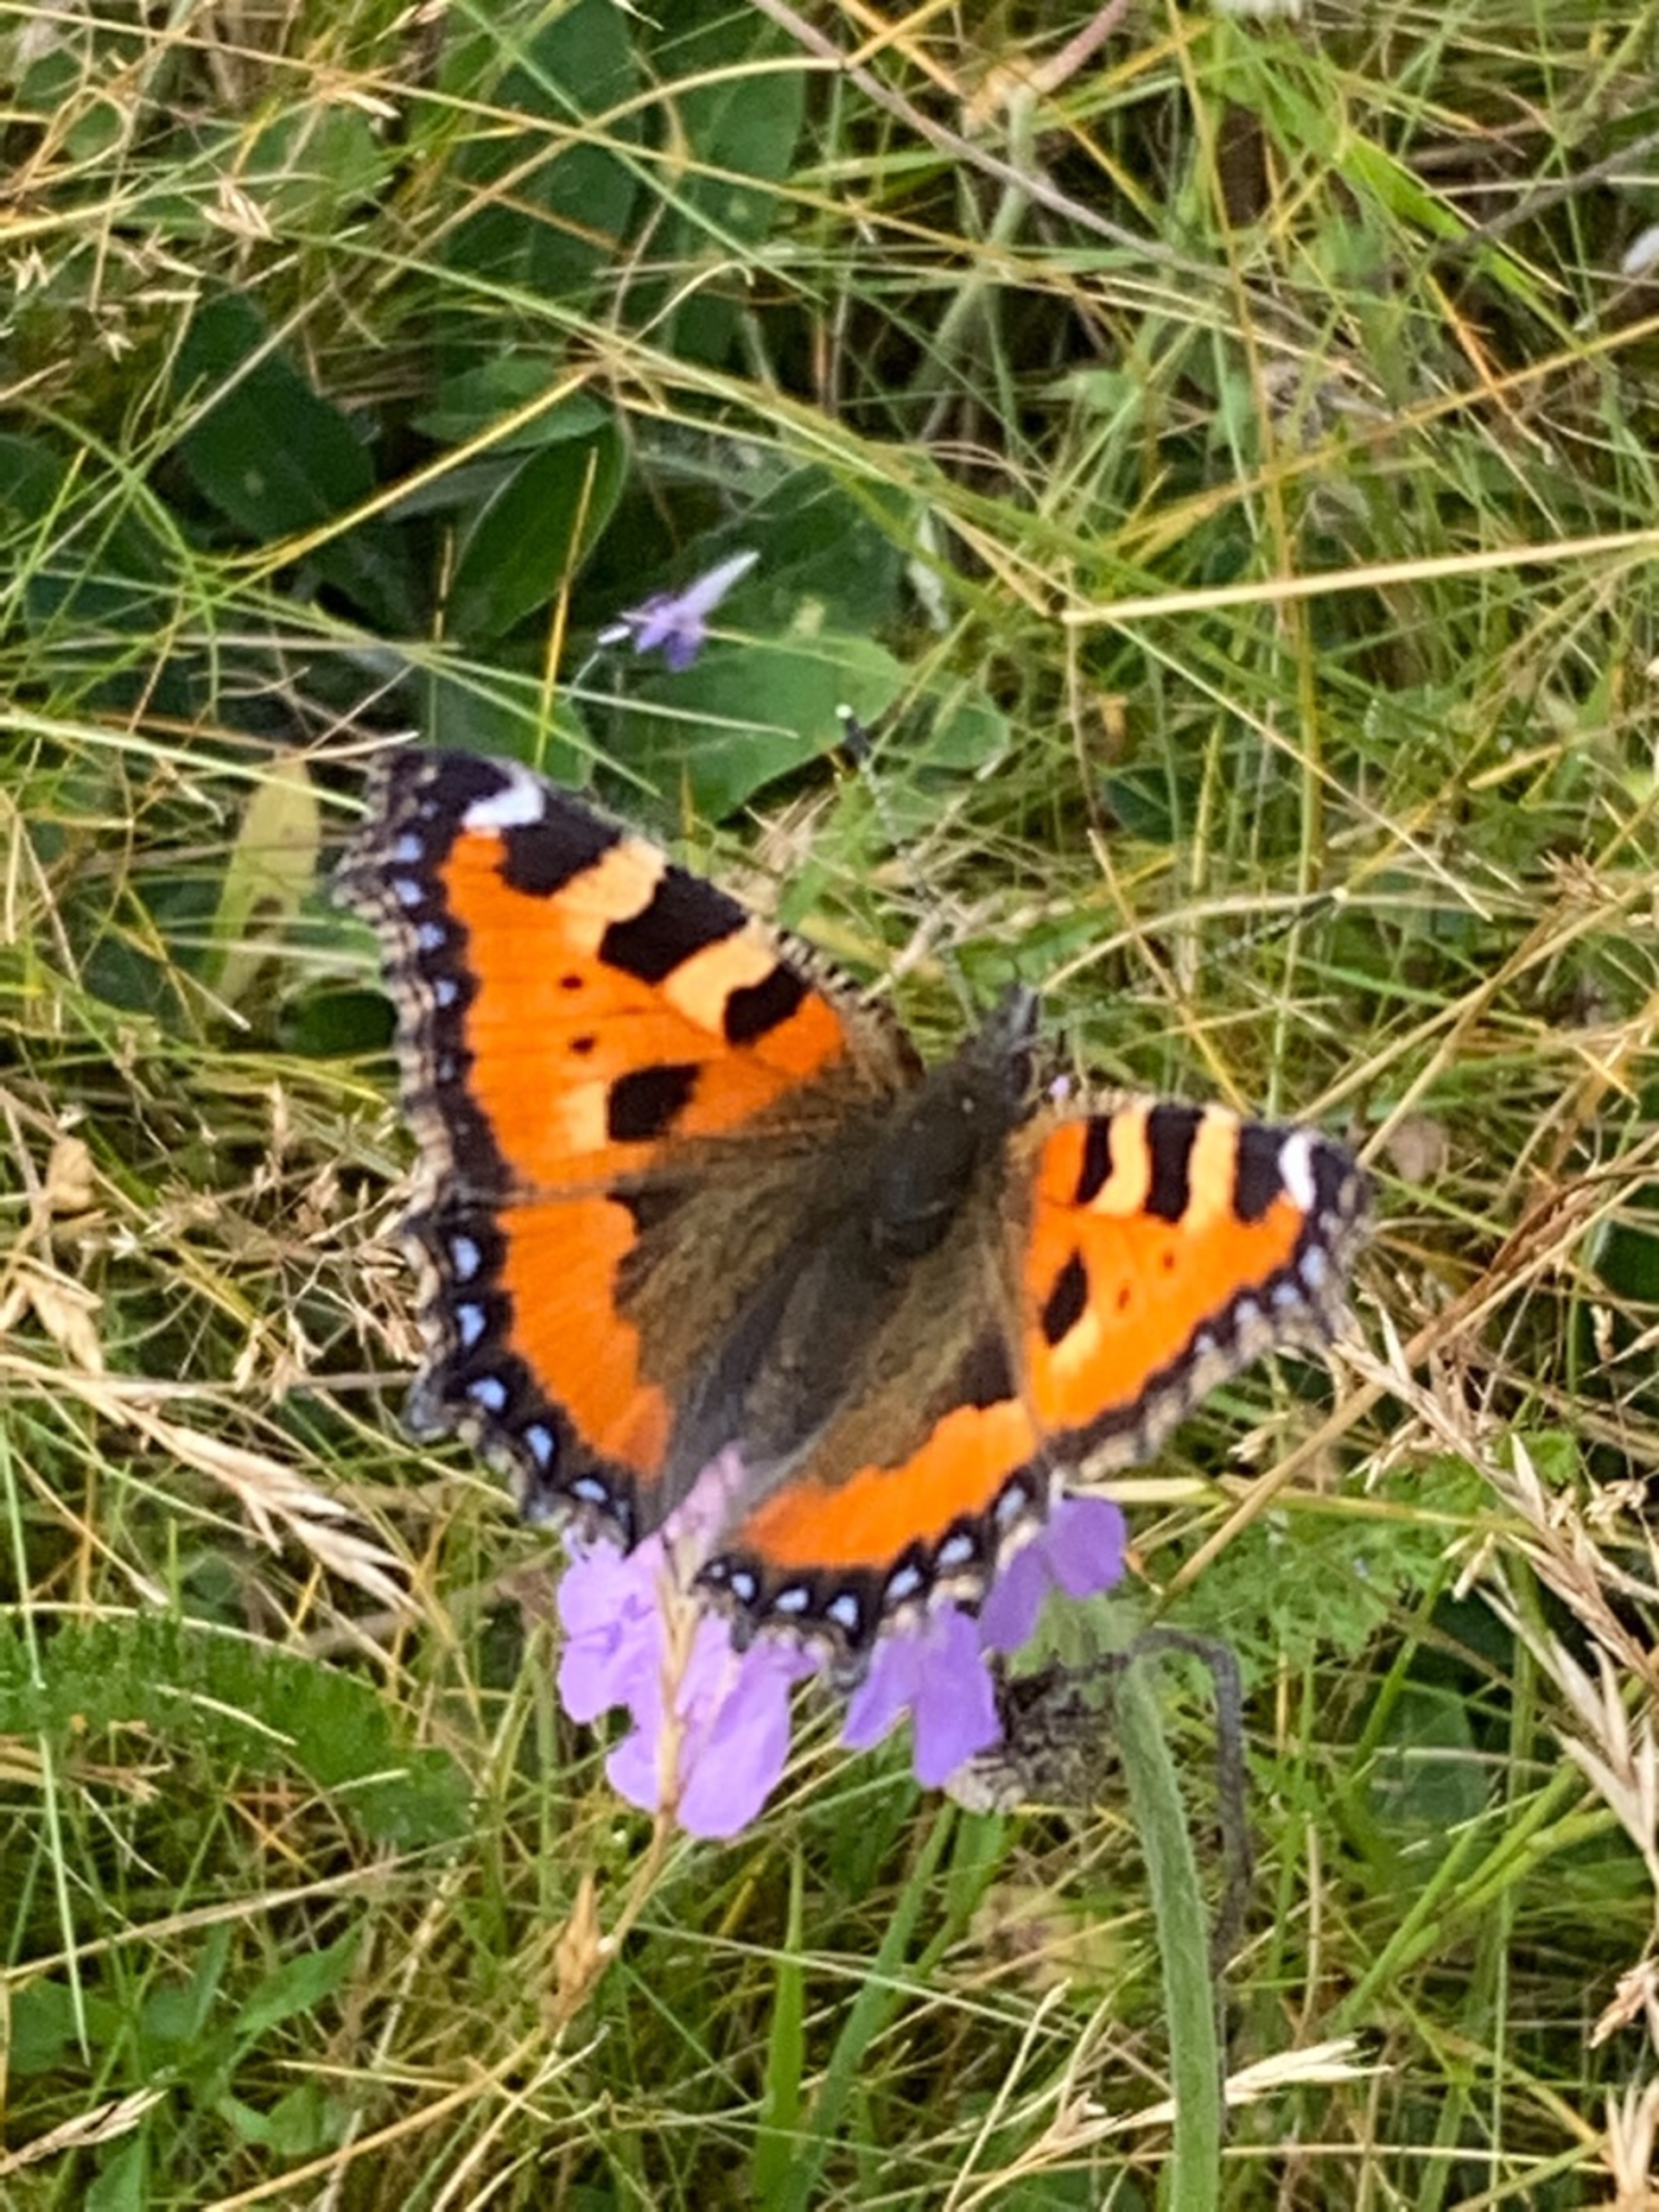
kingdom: Animalia
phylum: Arthropoda
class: Insecta
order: Lepidoptera
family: Nymphalidae
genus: Aglais
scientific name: Aglais urticae
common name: Nældens takvinge
